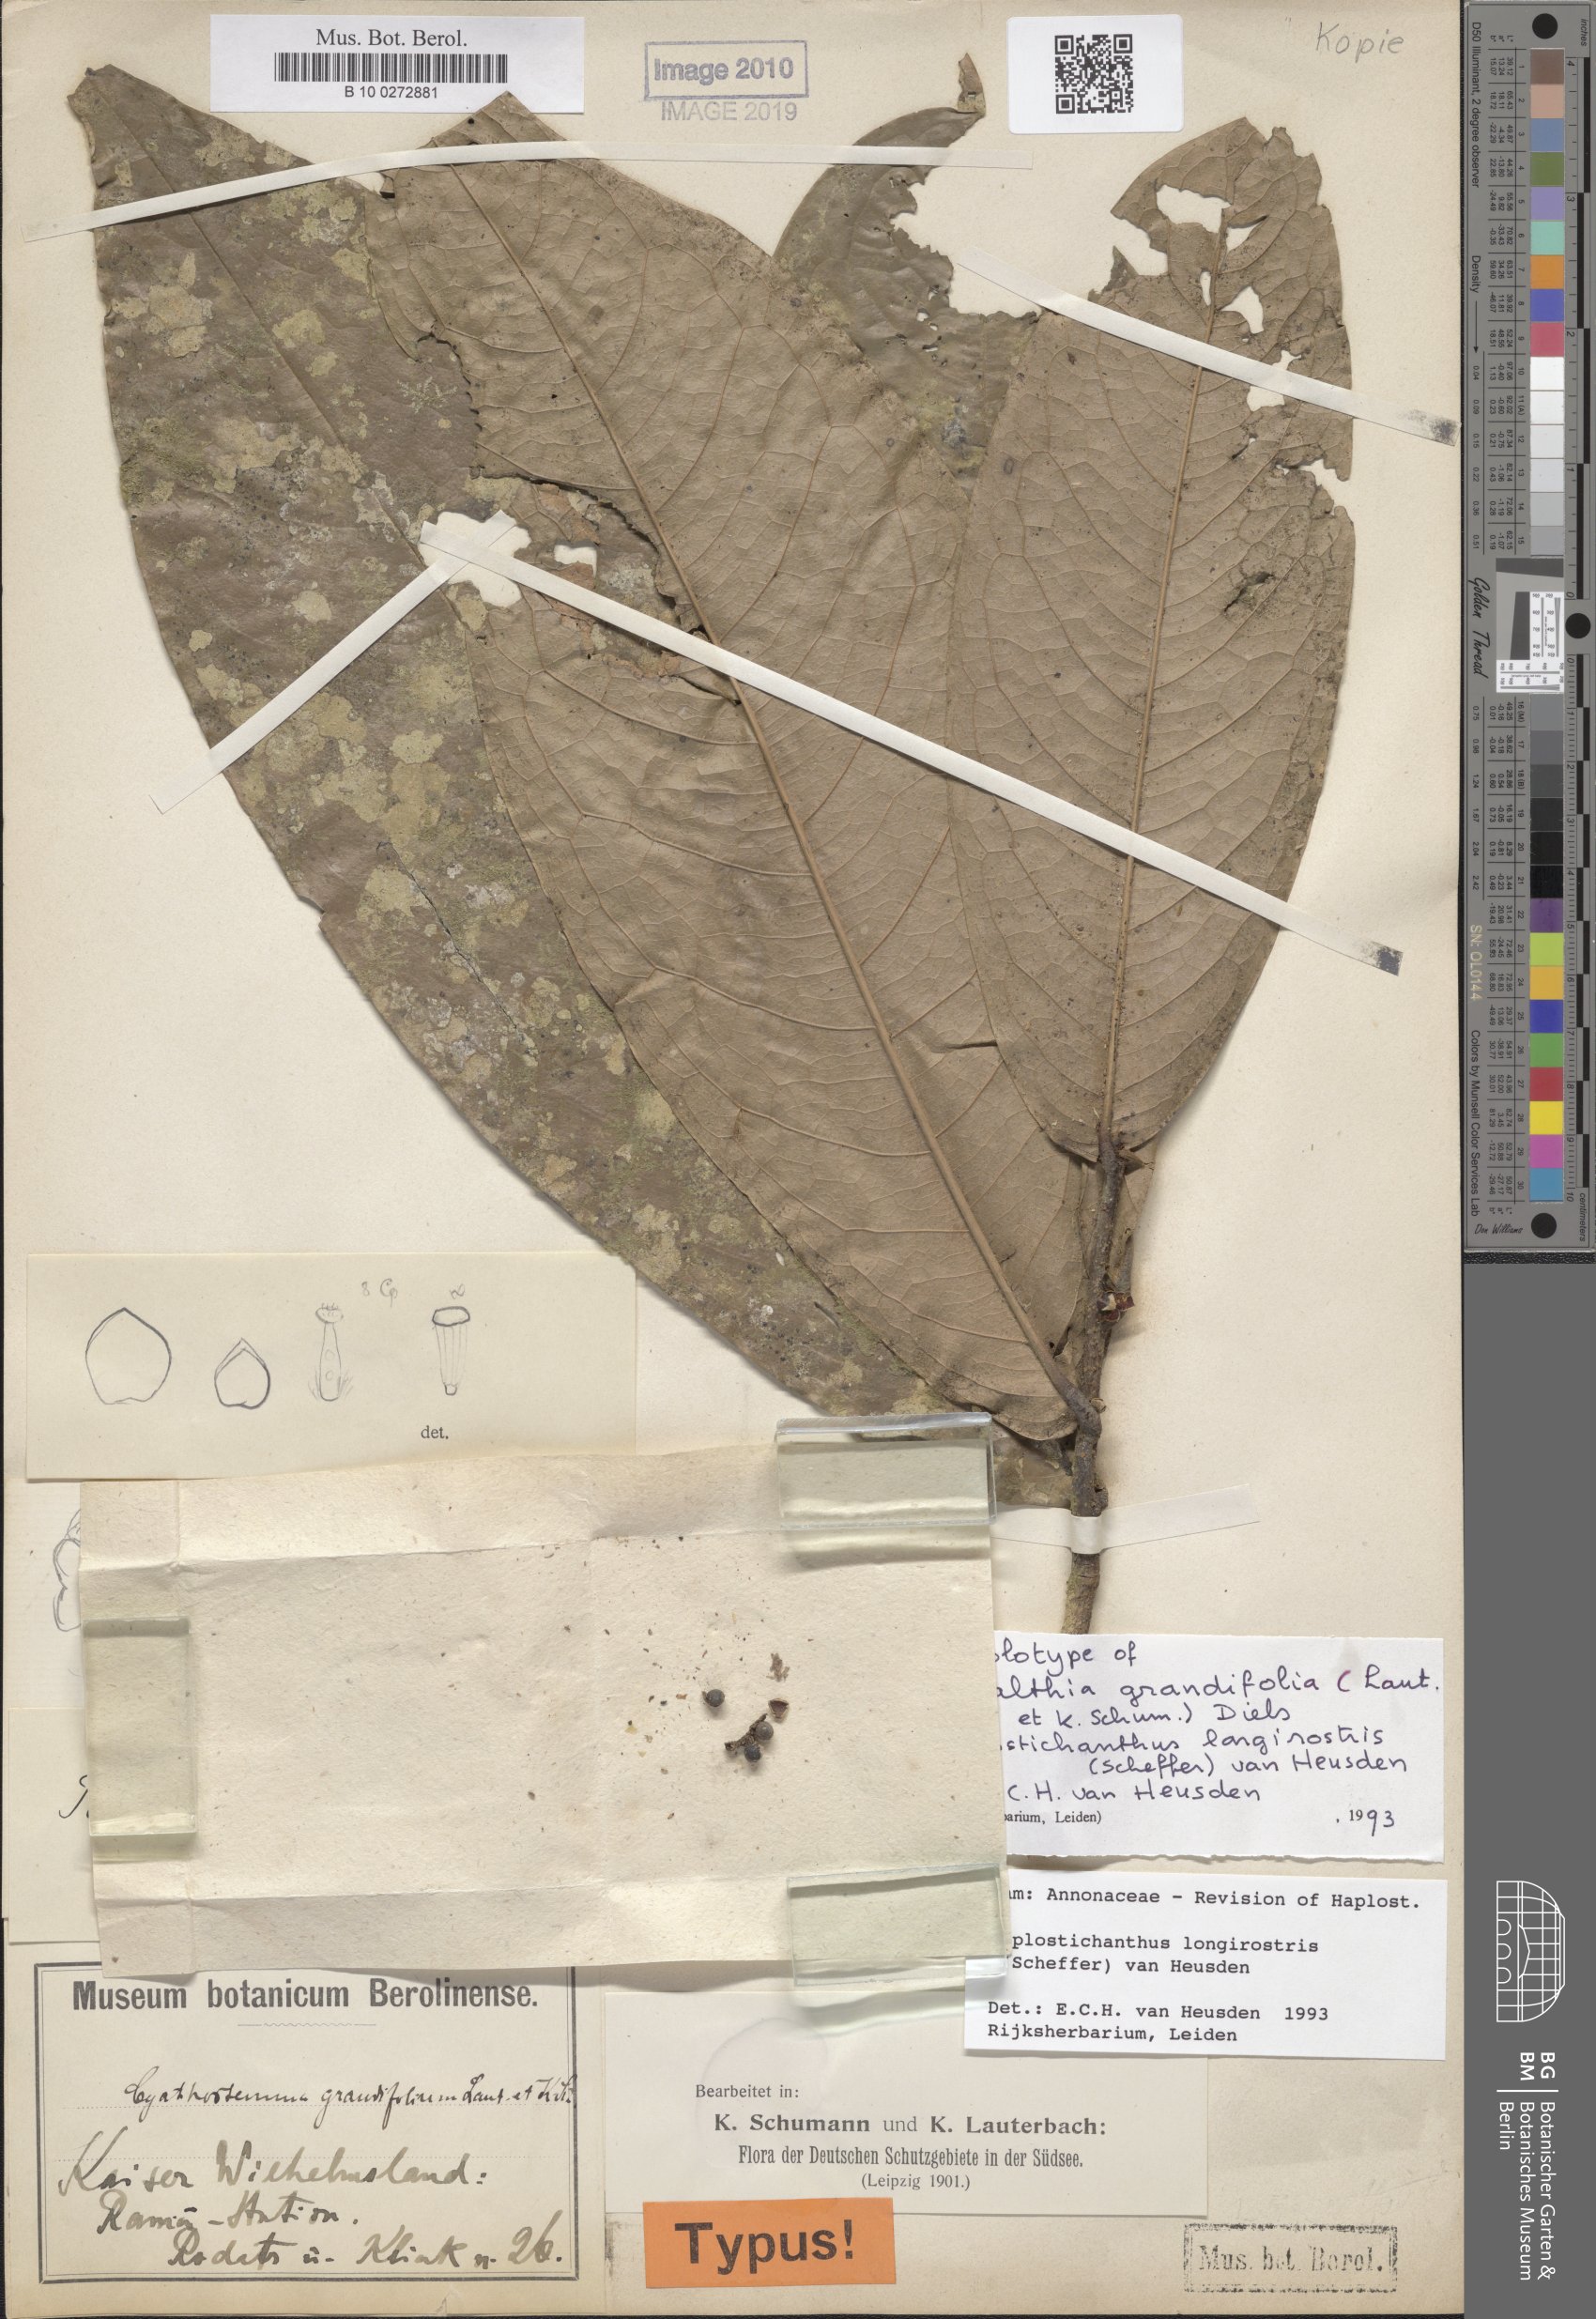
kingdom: Plantae
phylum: Tracheophyta
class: Magnoliopsida
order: Magnoliales
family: Annonaceae
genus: Haplostichanthus
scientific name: Haplostichanthus longirostris
